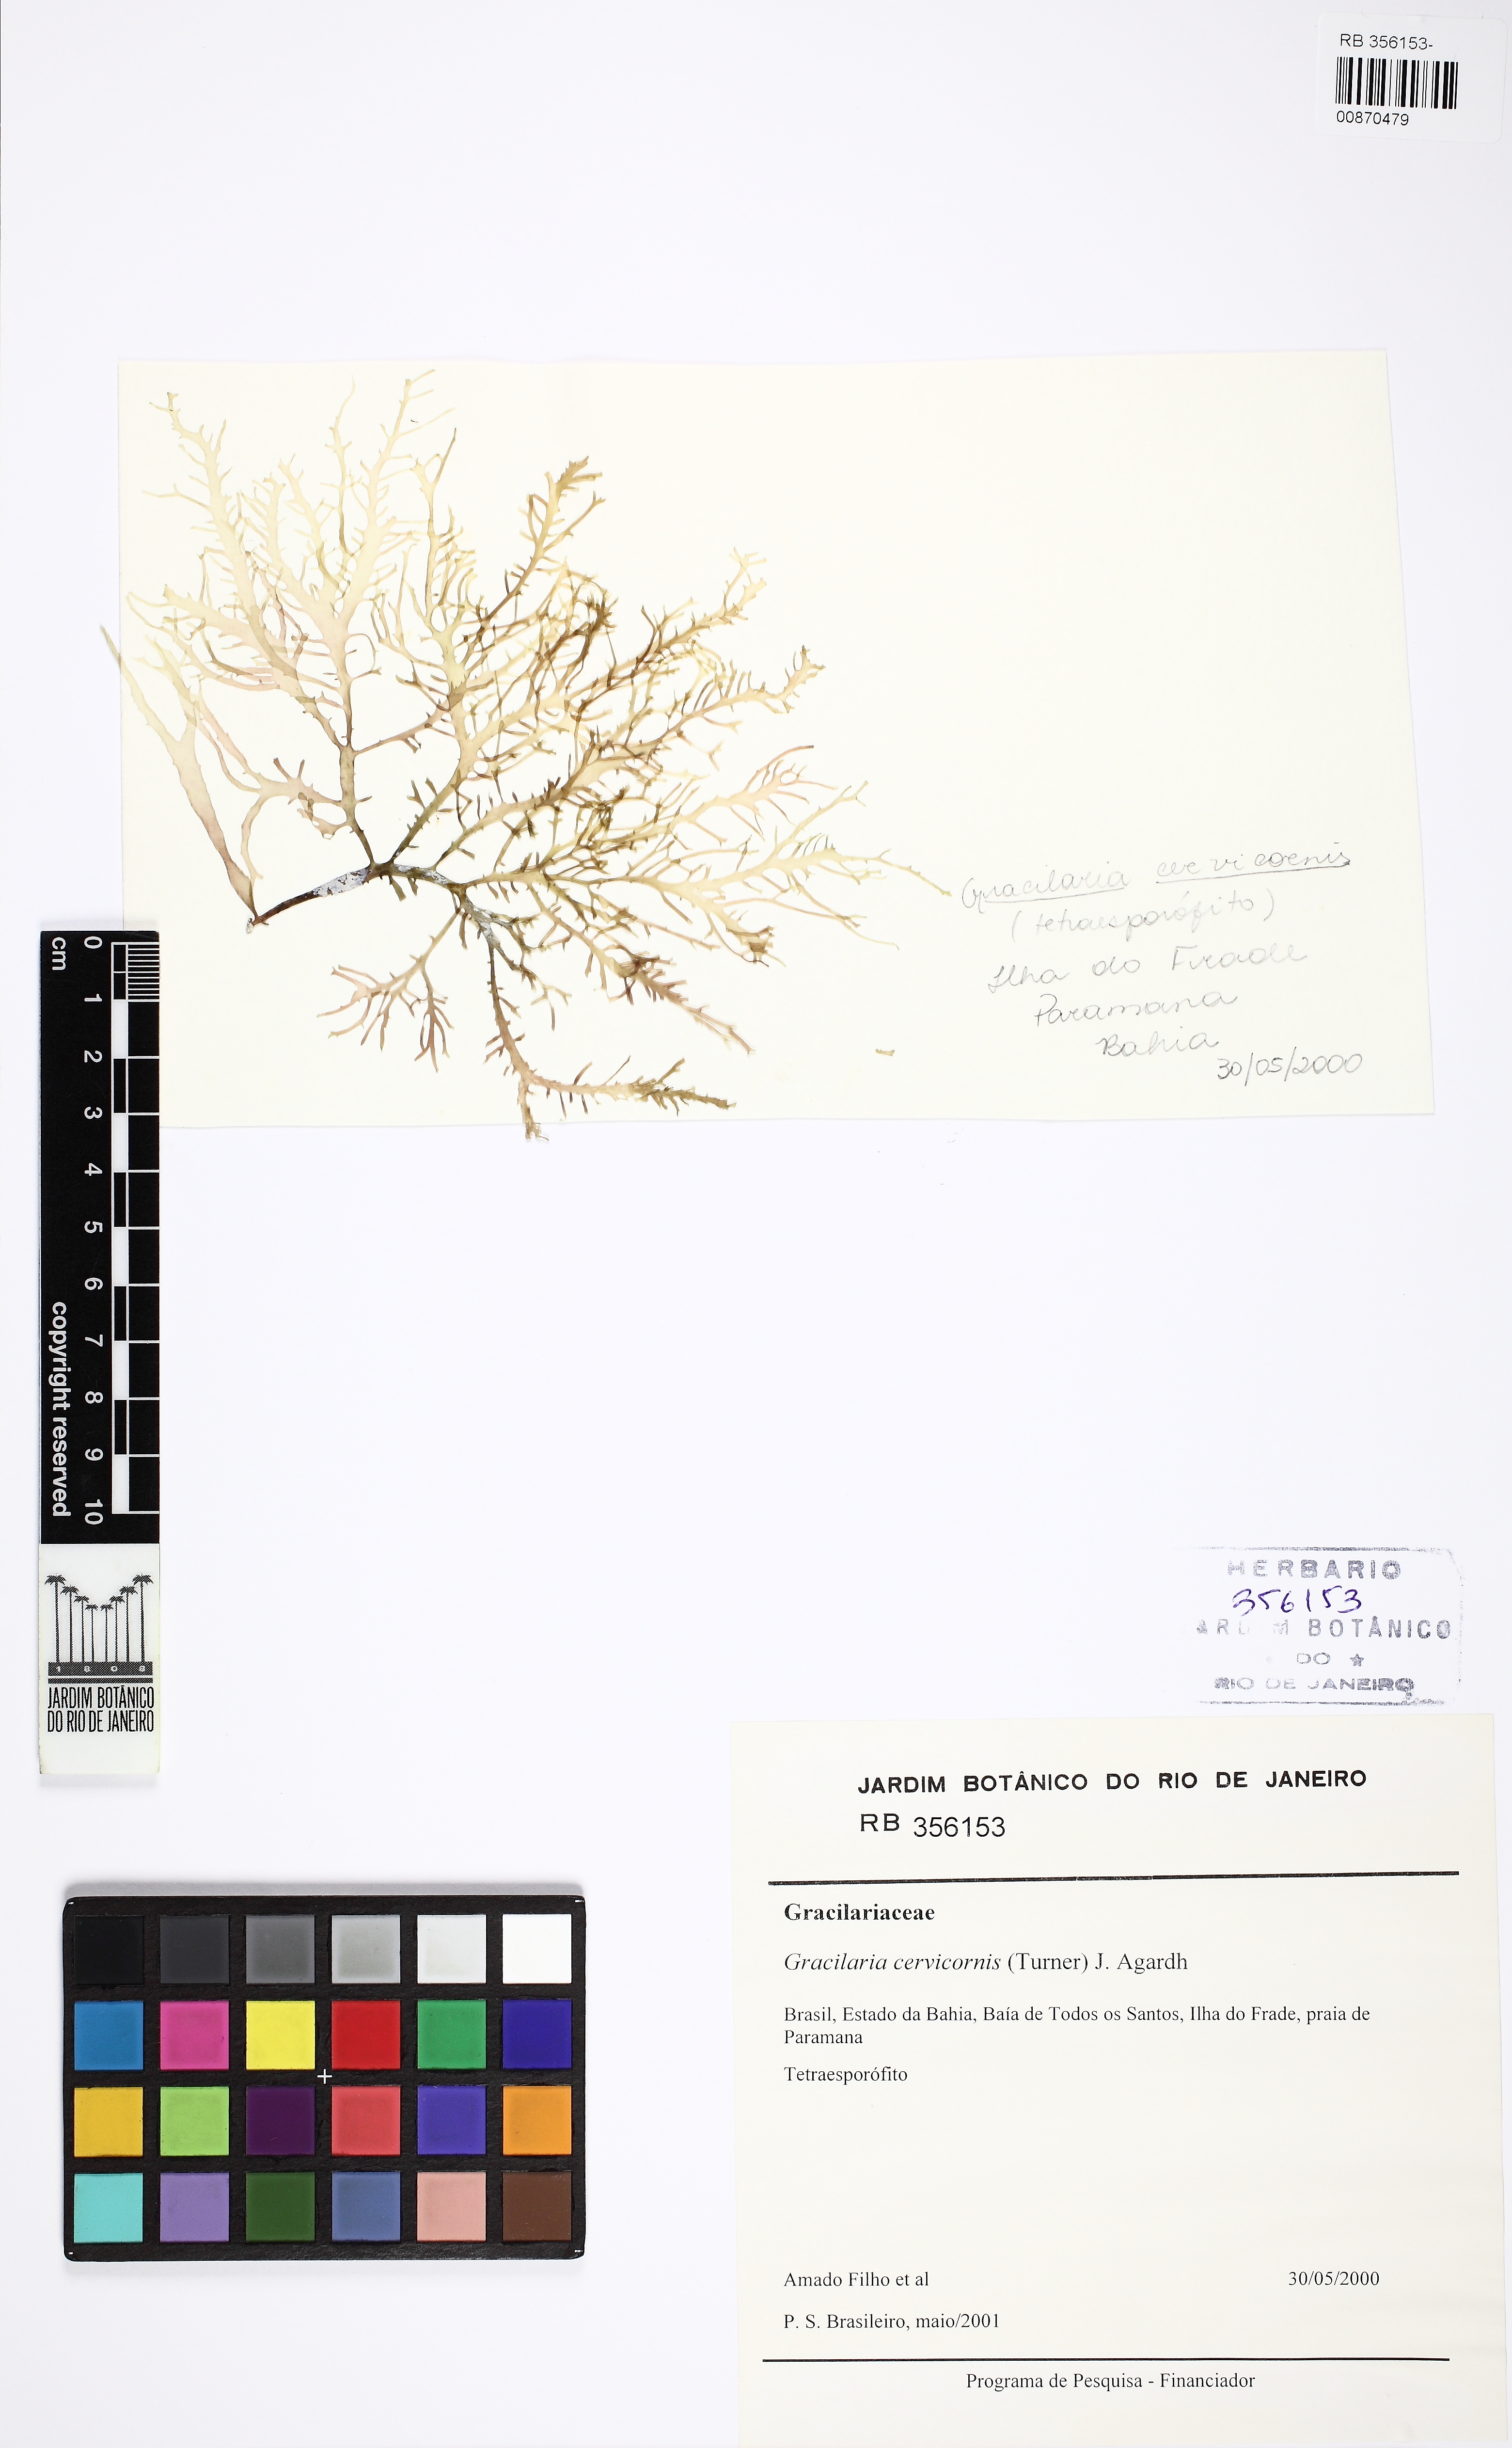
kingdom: Plantae
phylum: Rhodophyta
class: Florideophyceae
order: Gracilariales
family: Gracilariaceae
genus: Gracilaria
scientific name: Gracilaria cervicornis
